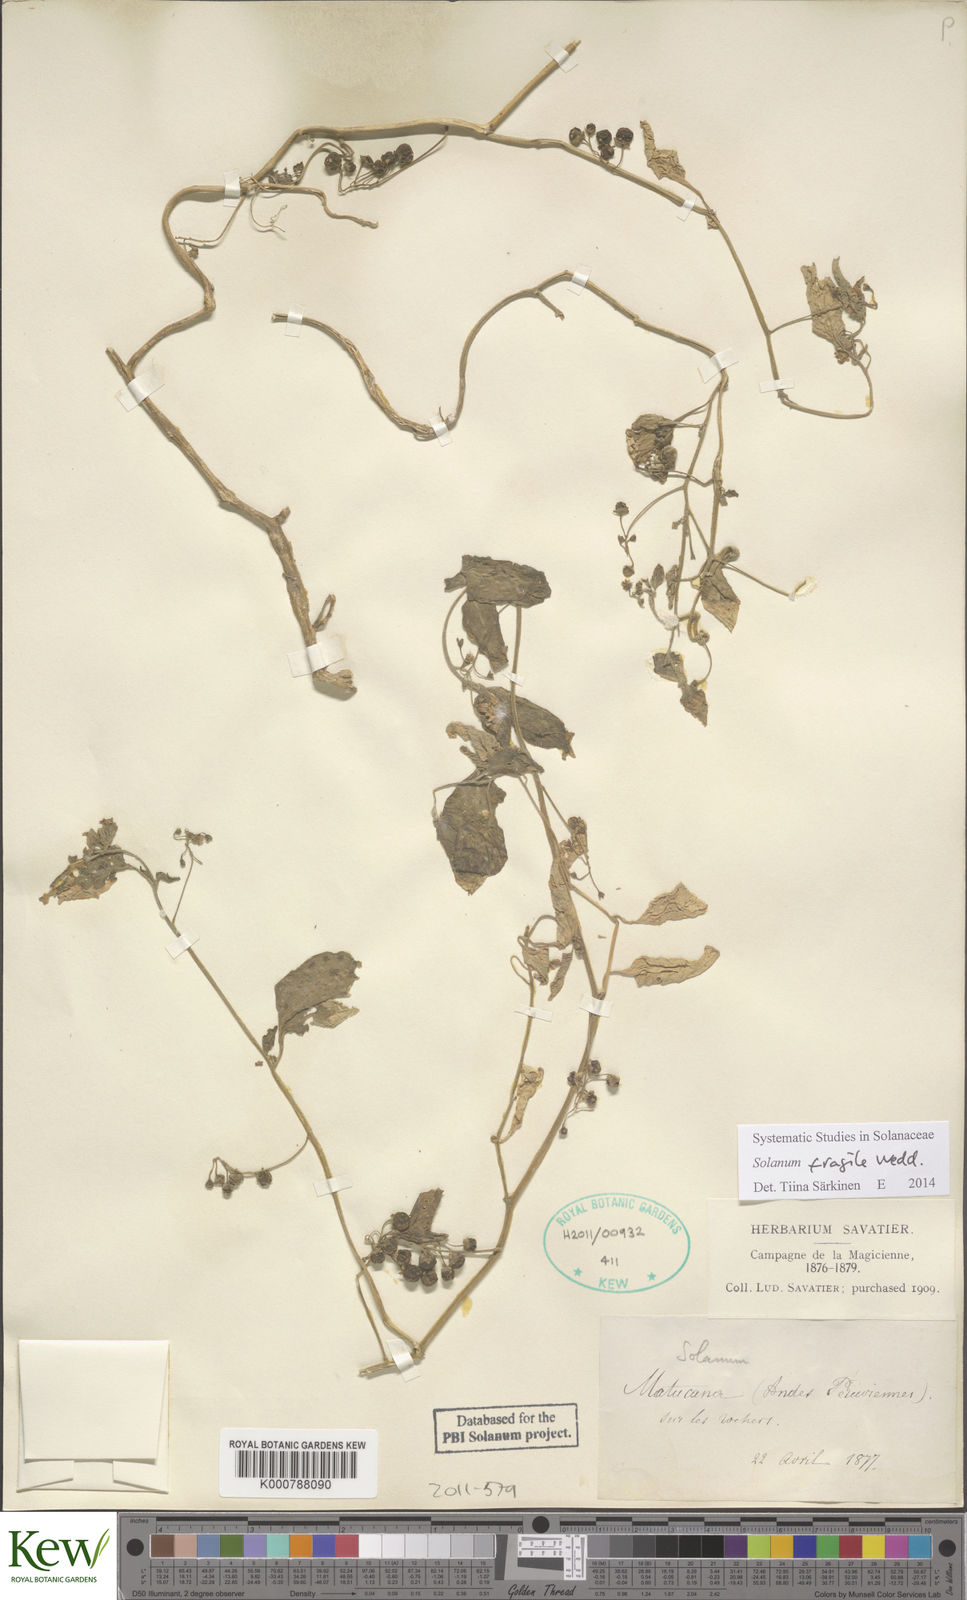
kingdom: Plantae
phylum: Tracheophyta
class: Magnoliopsida
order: Solanales
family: Solanaceae
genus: Solanum
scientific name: Solanum fragile
